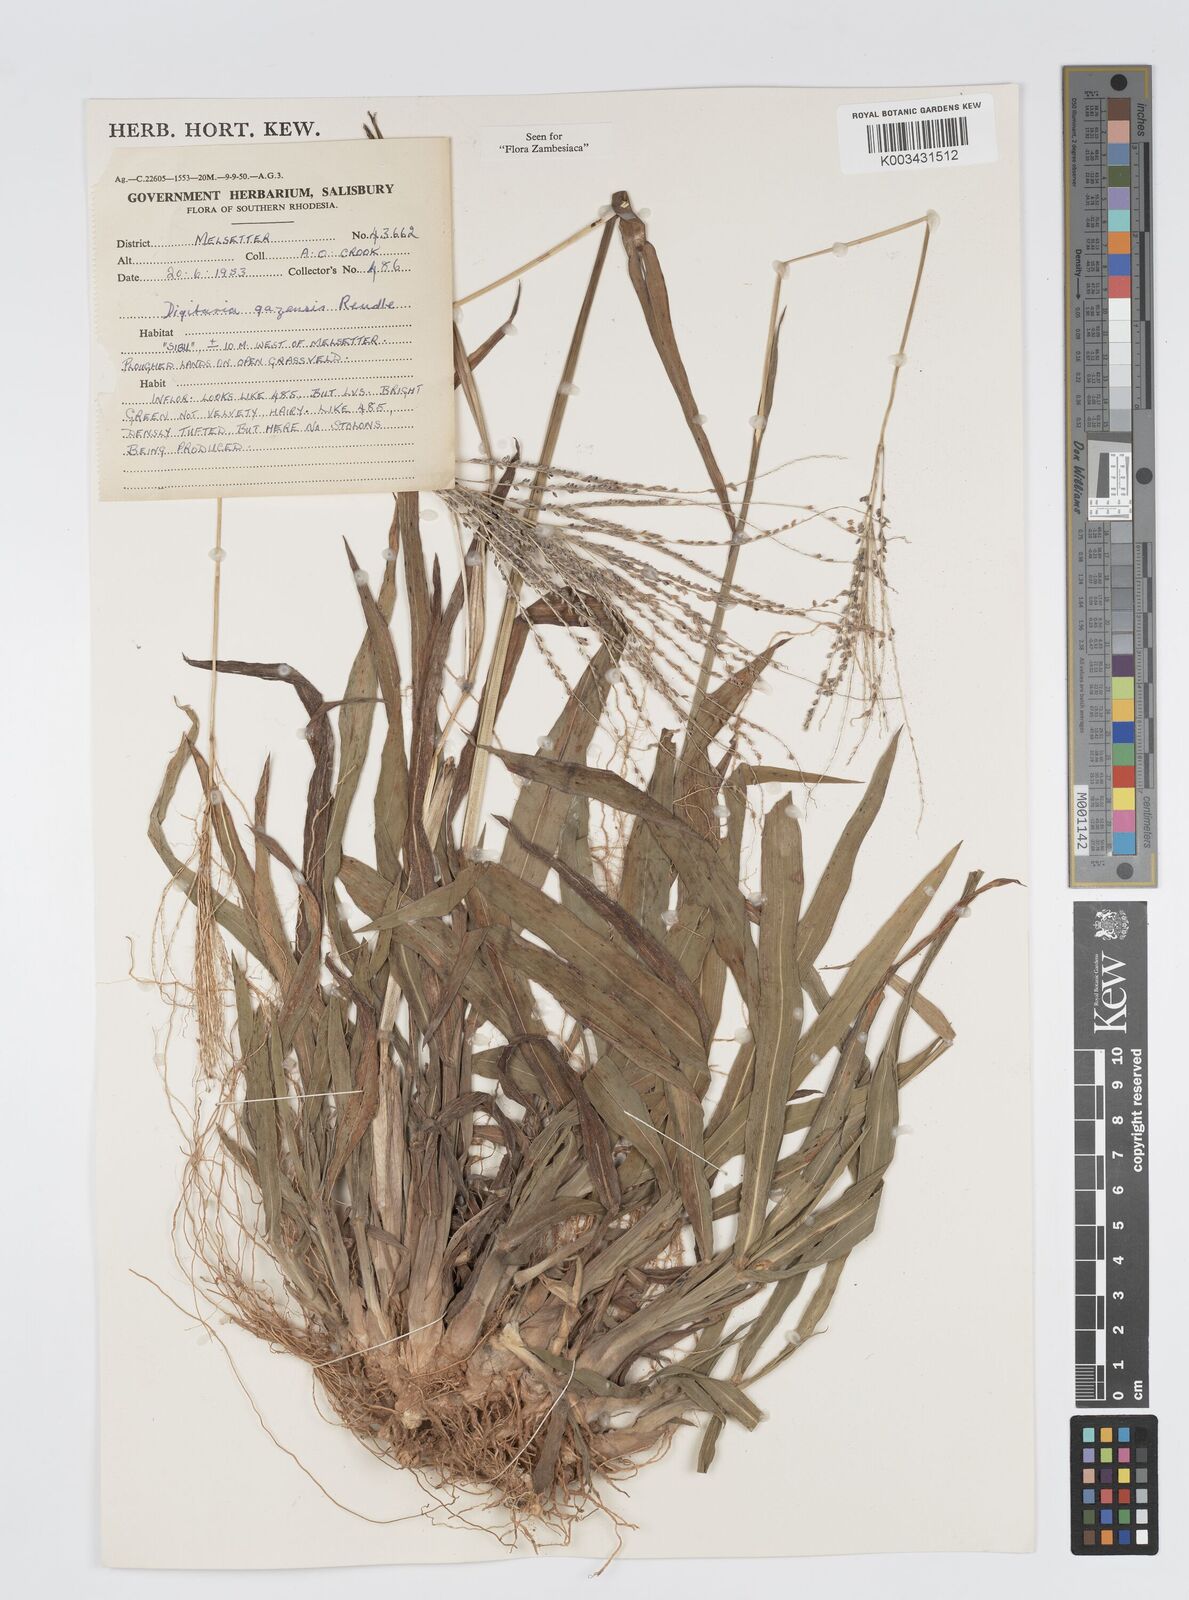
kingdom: Plantae
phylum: Tracheophyta
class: Liliopsida
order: Poales
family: Poaceae
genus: Digitaria
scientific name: Digitaria gazensis
